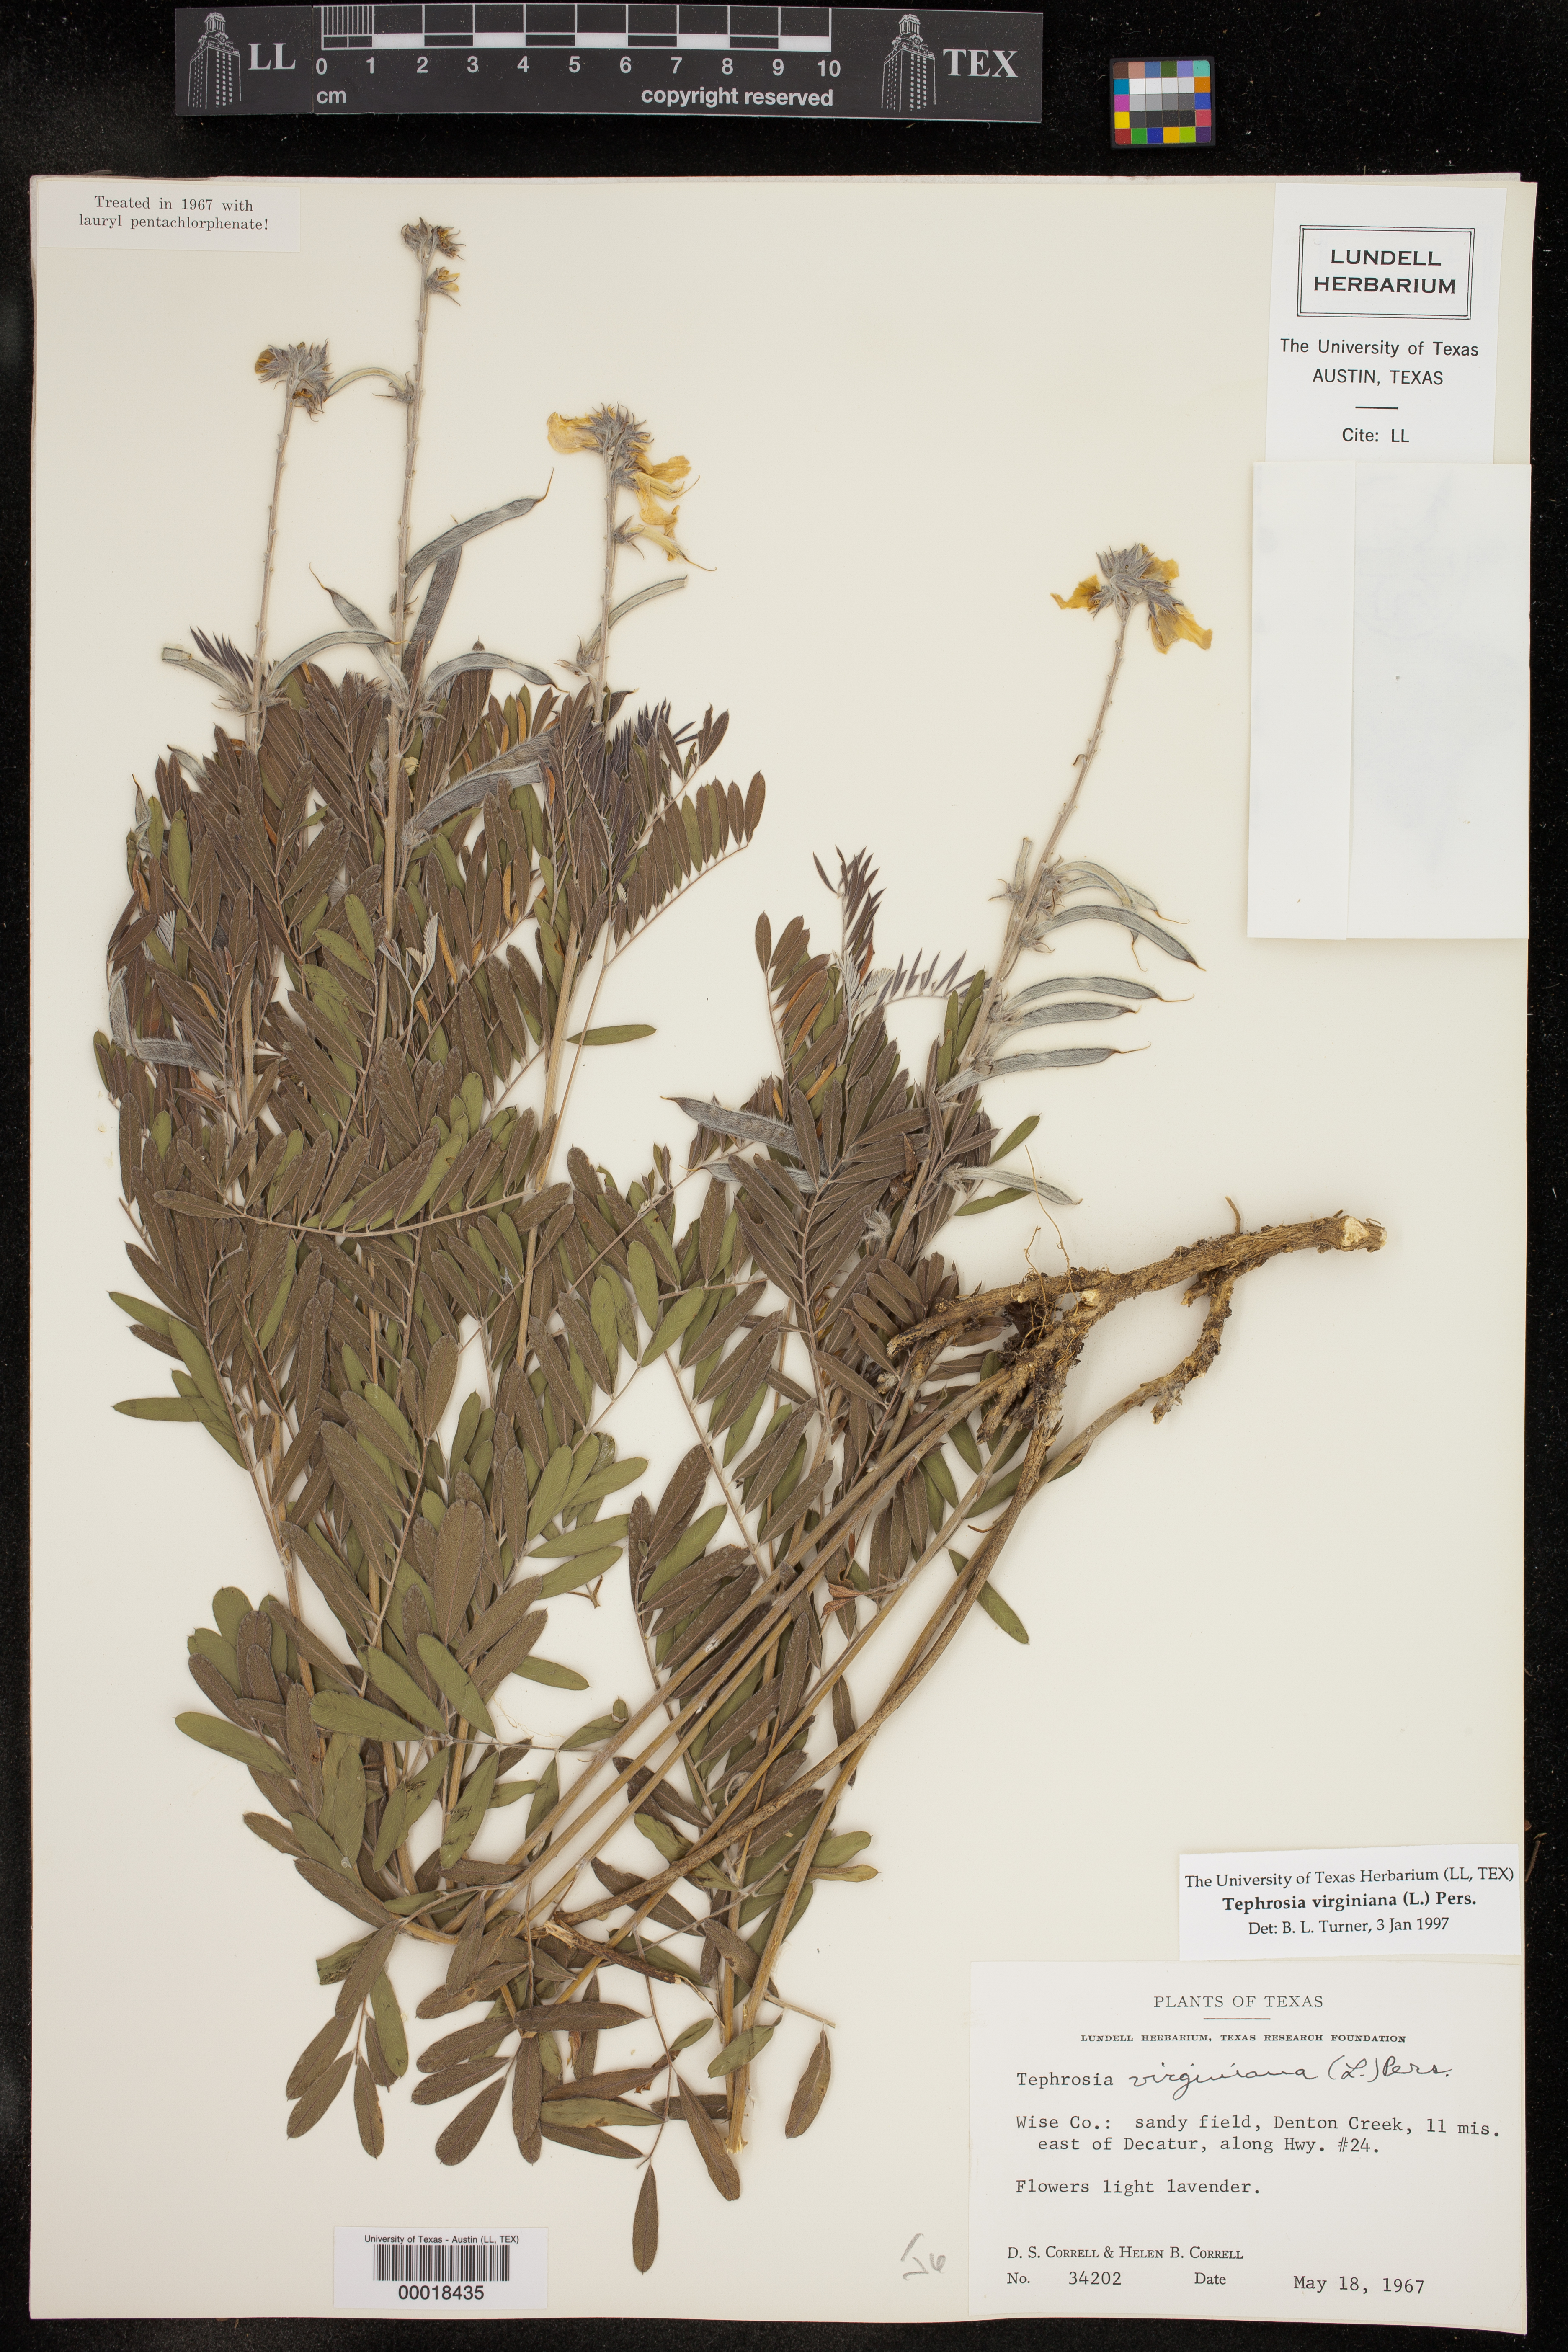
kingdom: Plantae
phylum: Tracheophyta
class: Magnoliopsida
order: Fabales
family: Fabaceae
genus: Tephrosia
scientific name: Tephrosia virginiana
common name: Rabbit-pea
